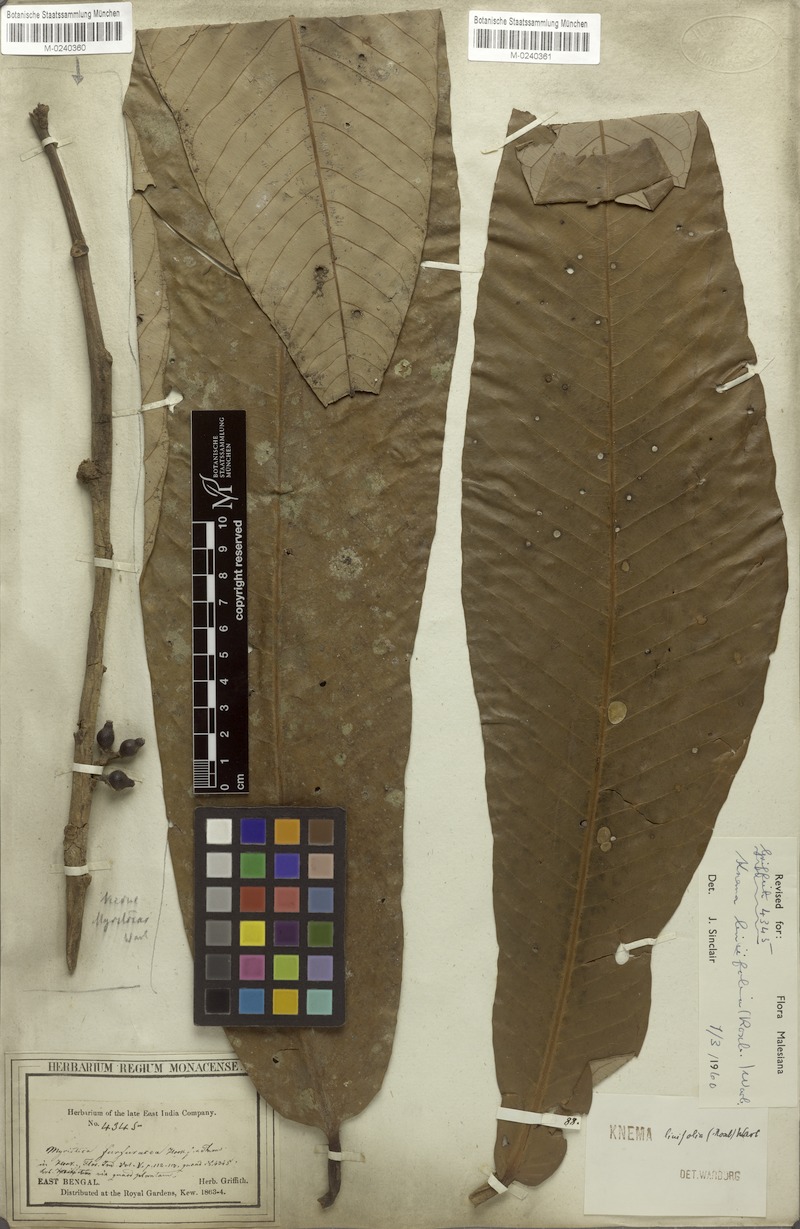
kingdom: Plantae
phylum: Tracheophyta
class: Magnoliopsida
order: Magnoliales
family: Myristicaceae
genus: Knema
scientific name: Knema linifolia
